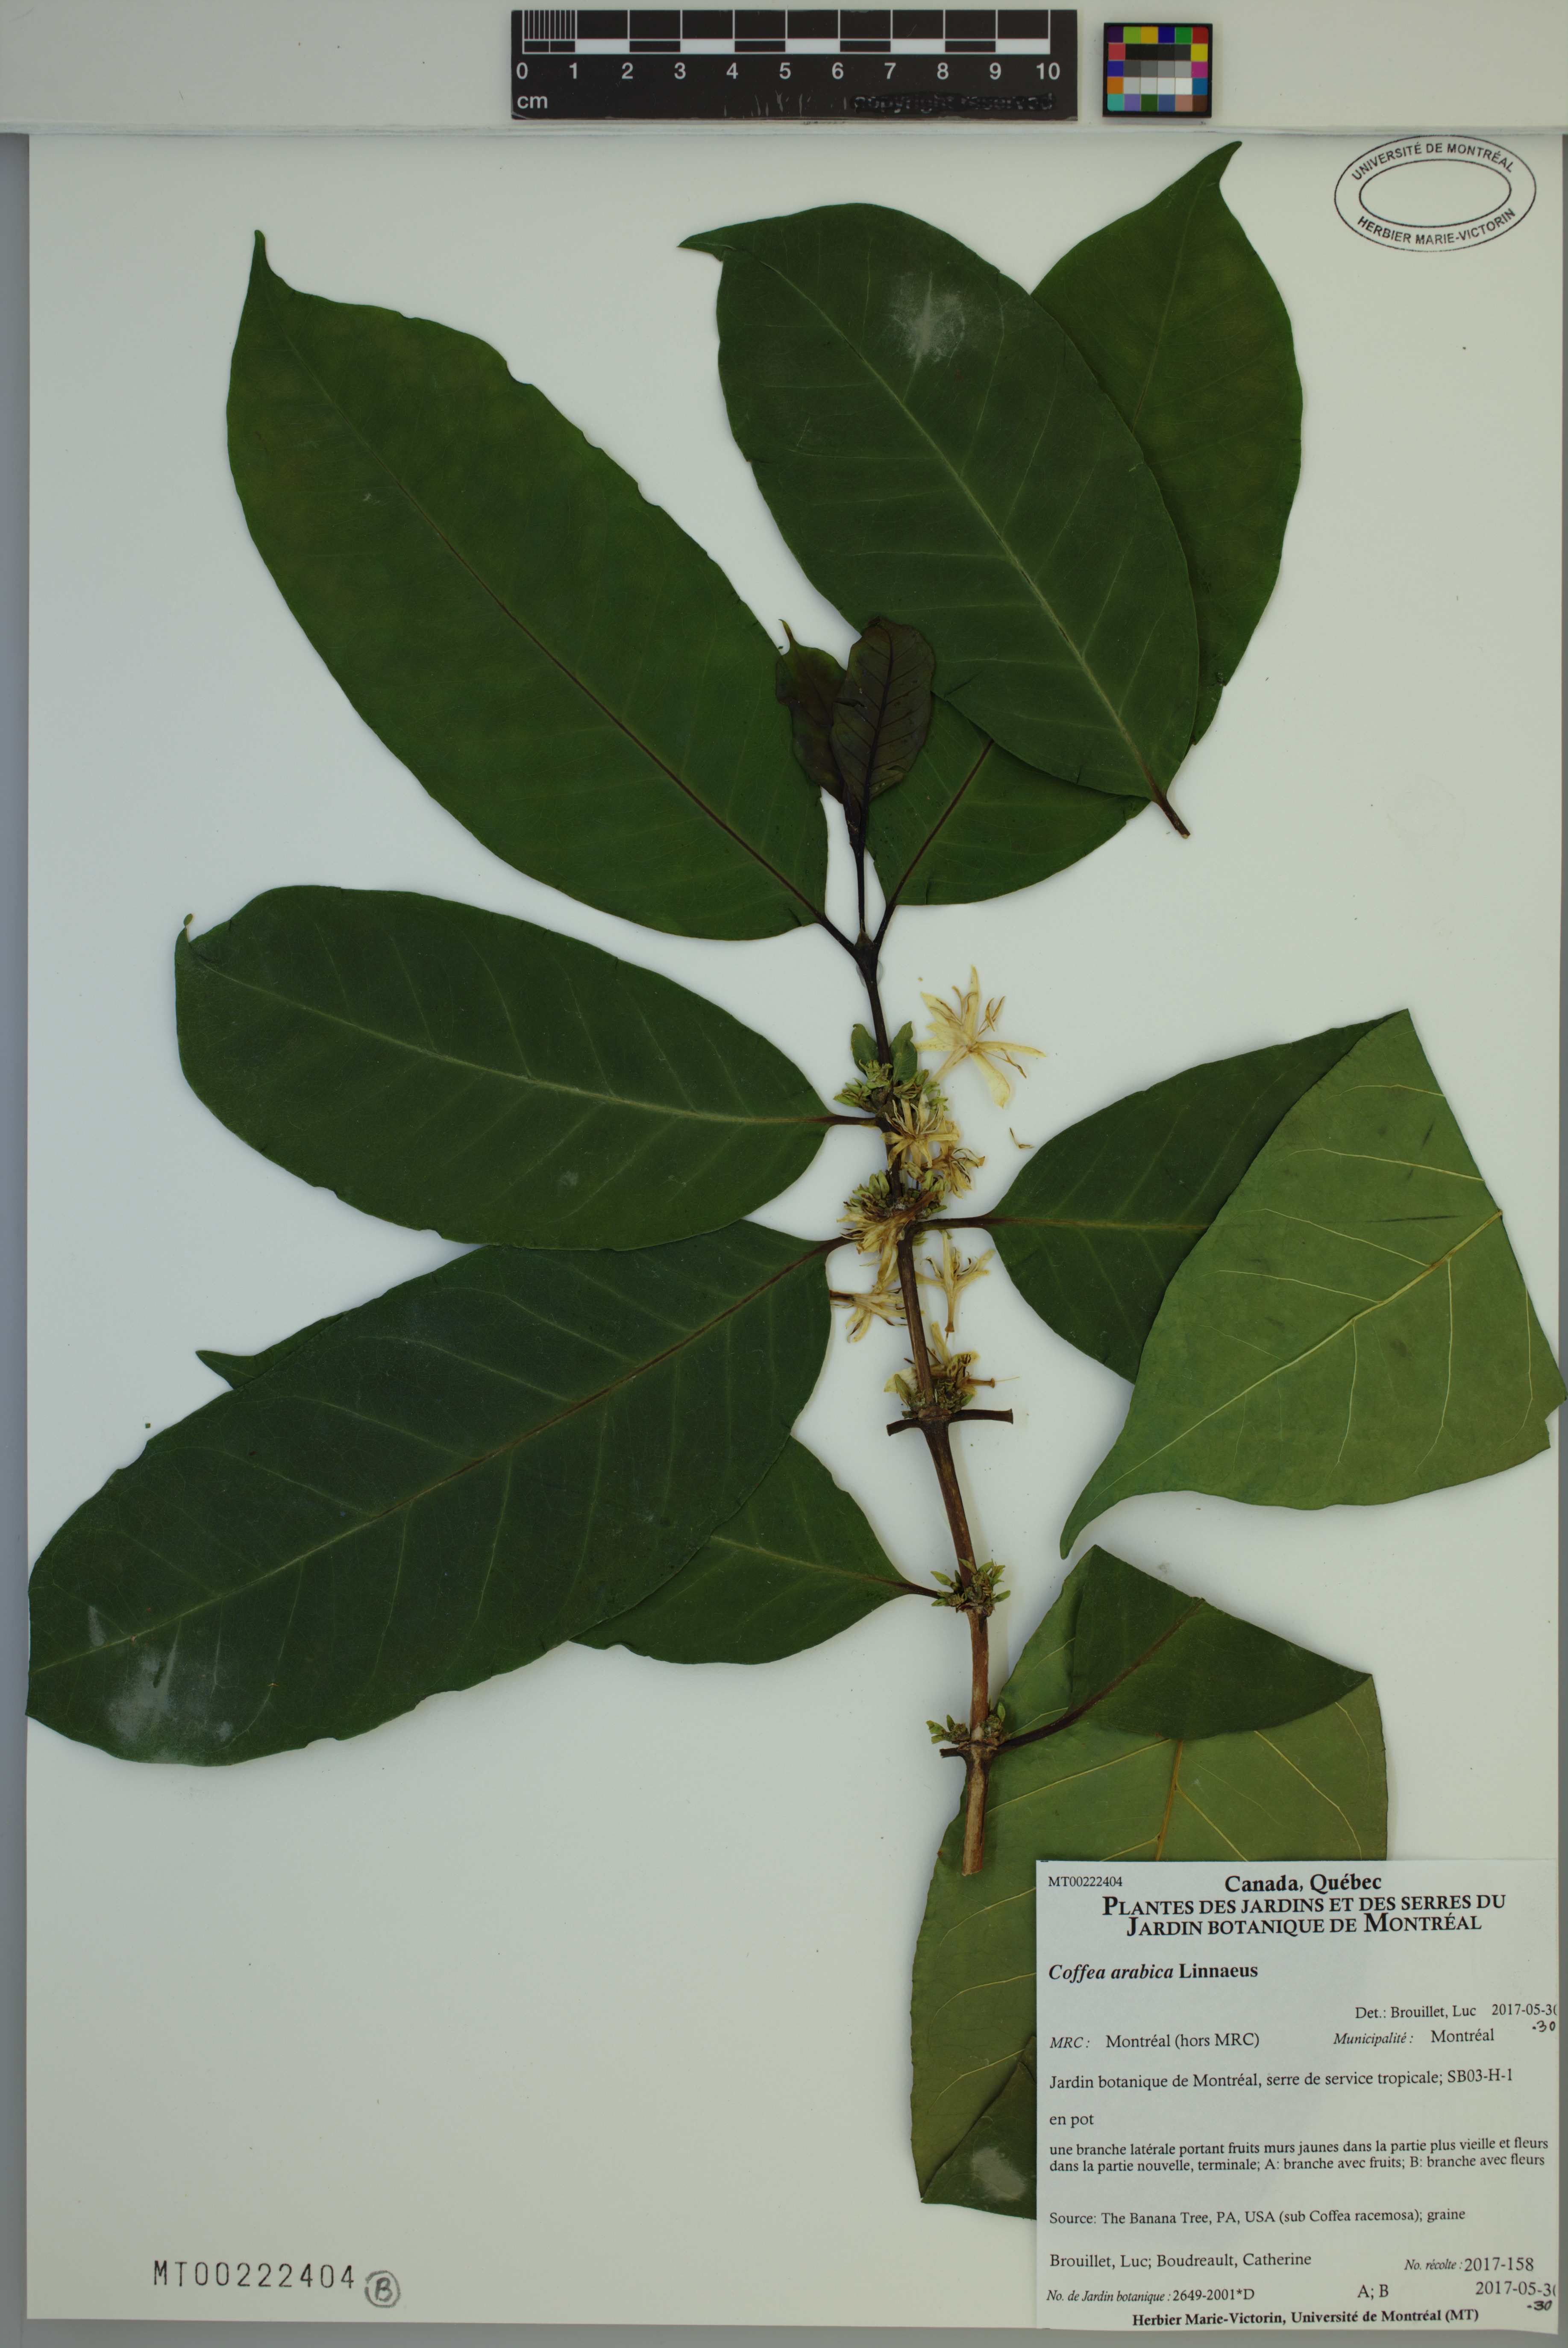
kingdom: Plantae
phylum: Tracheophyta
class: Magnoliopsida
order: Gentianales
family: Rubiaceae
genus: Coffea
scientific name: Coffea arabica
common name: Coffee
